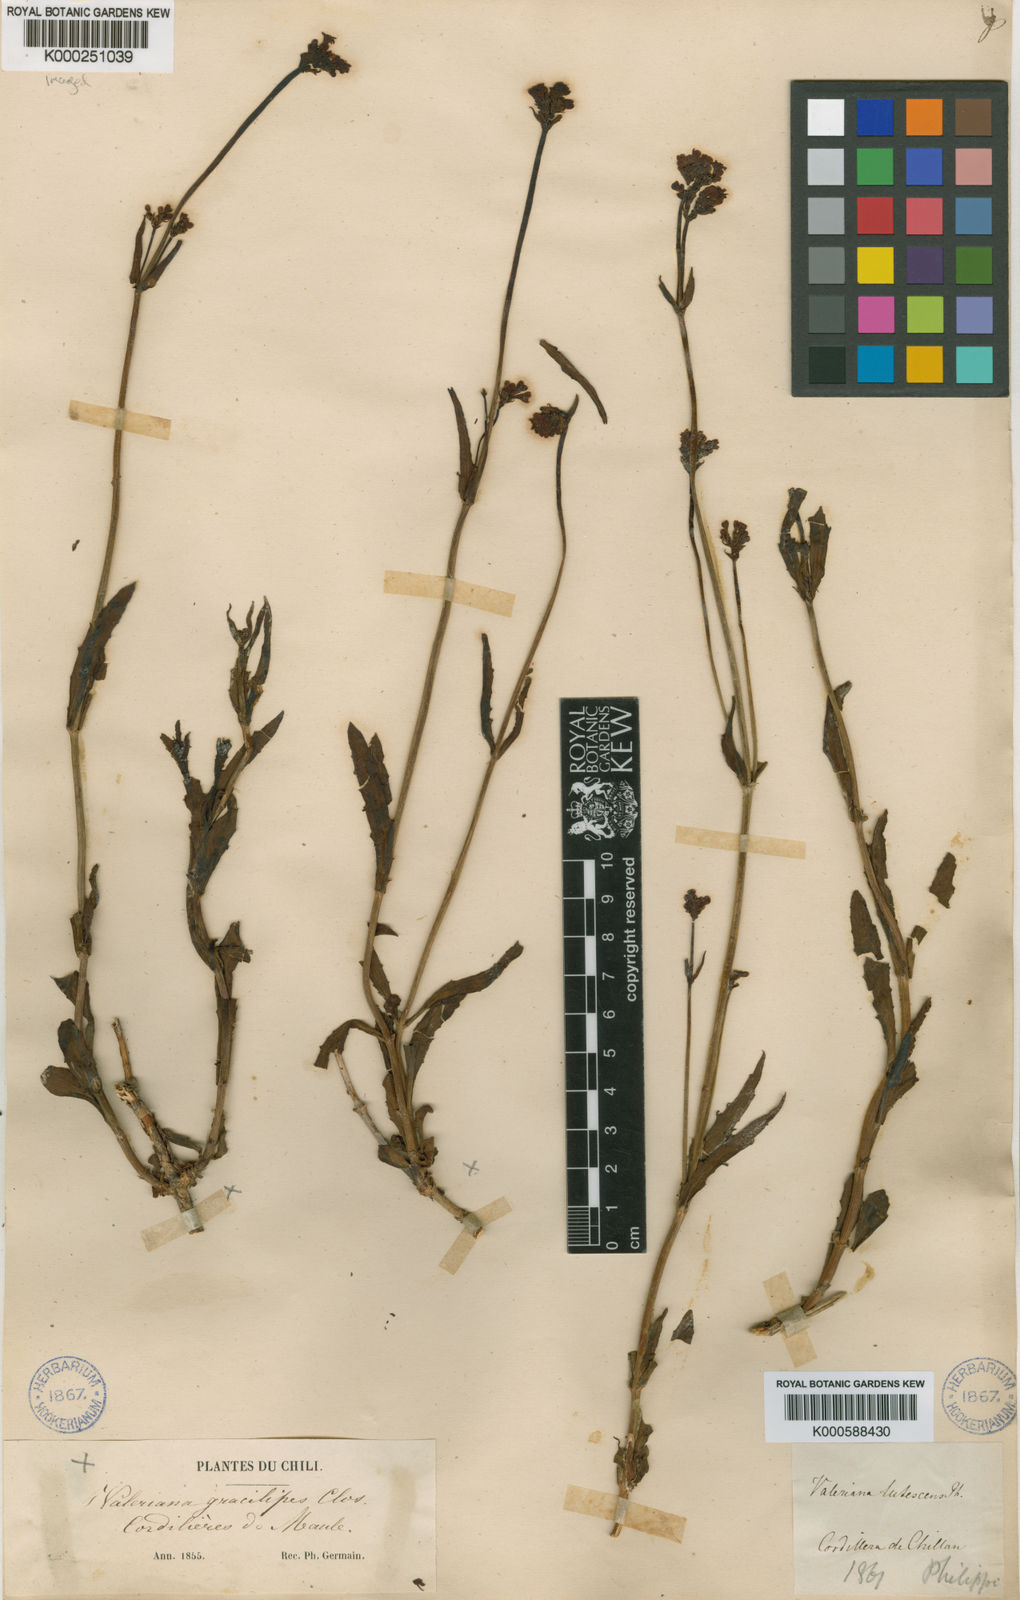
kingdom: Plantae
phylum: Tracheophyta
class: Magnoliopsida
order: Dipsacales
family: Caprifoliaceae
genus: Valeriana
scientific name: Valeriana gracilipes
